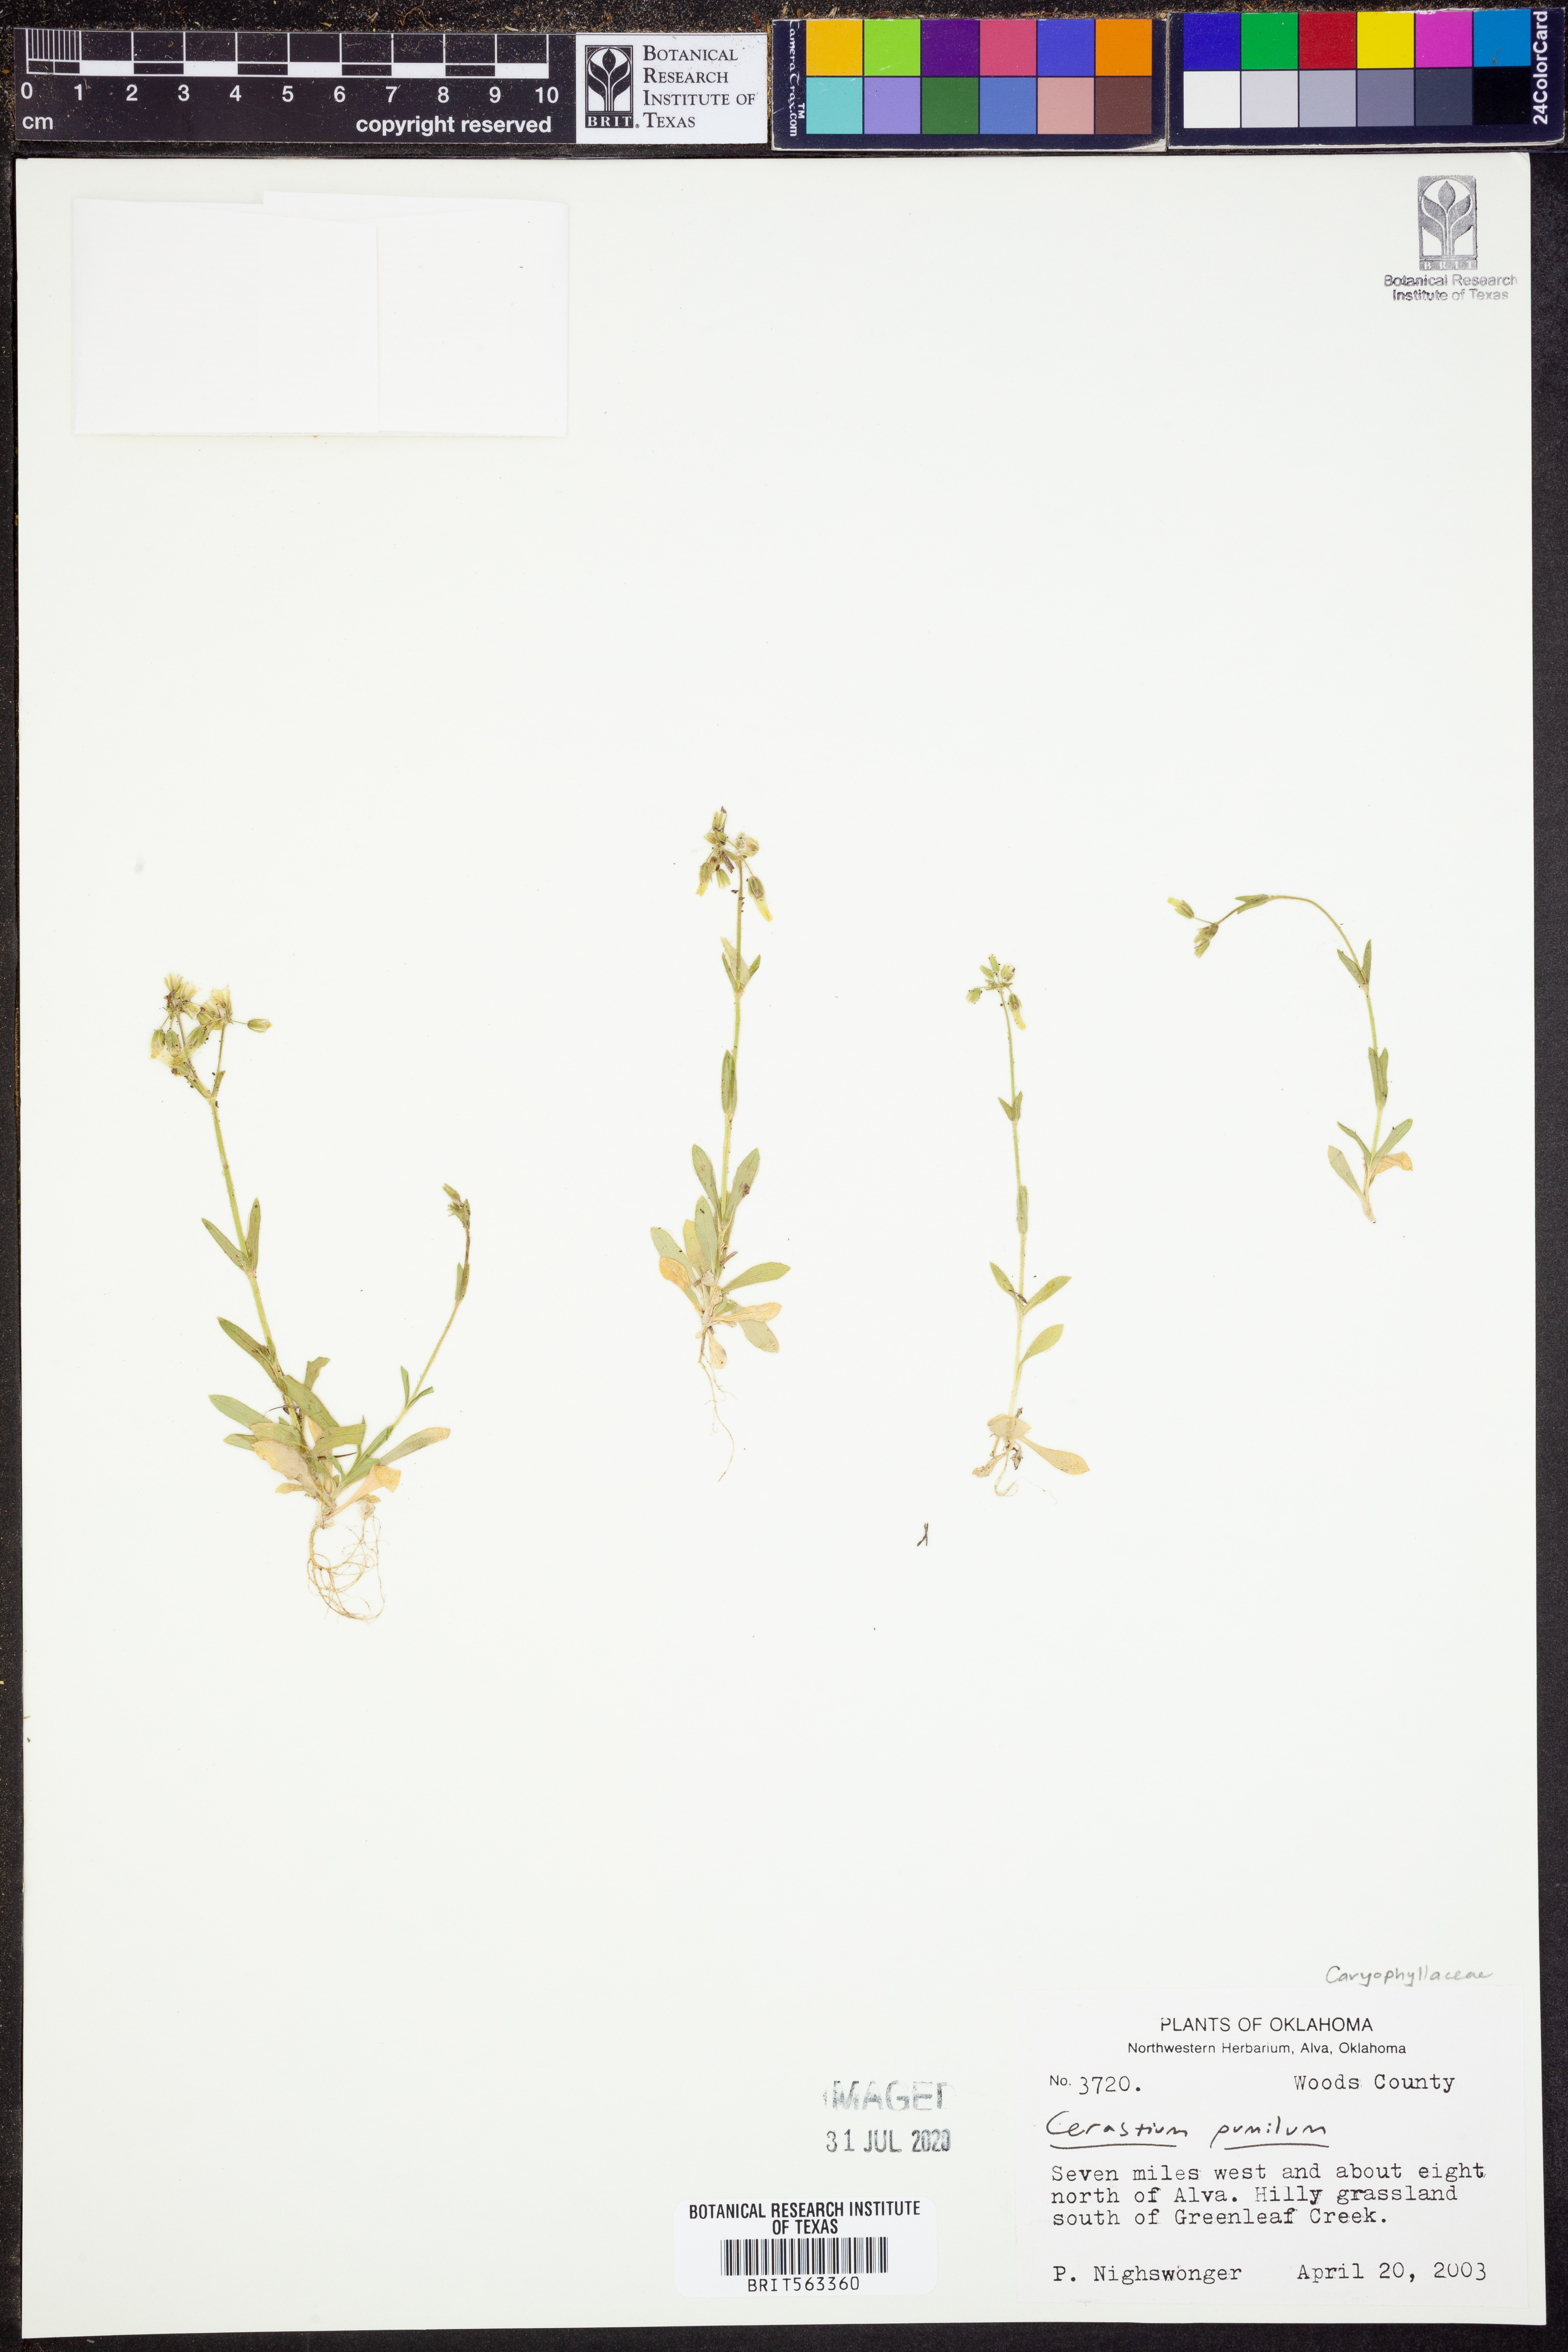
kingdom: Plantae
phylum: Tracheophyta
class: Magnoliopsida
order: Caryophyllales
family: Caryophyllaceae
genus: Cerastium
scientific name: Cerastium pumilum
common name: Dwarf mouse-ear
